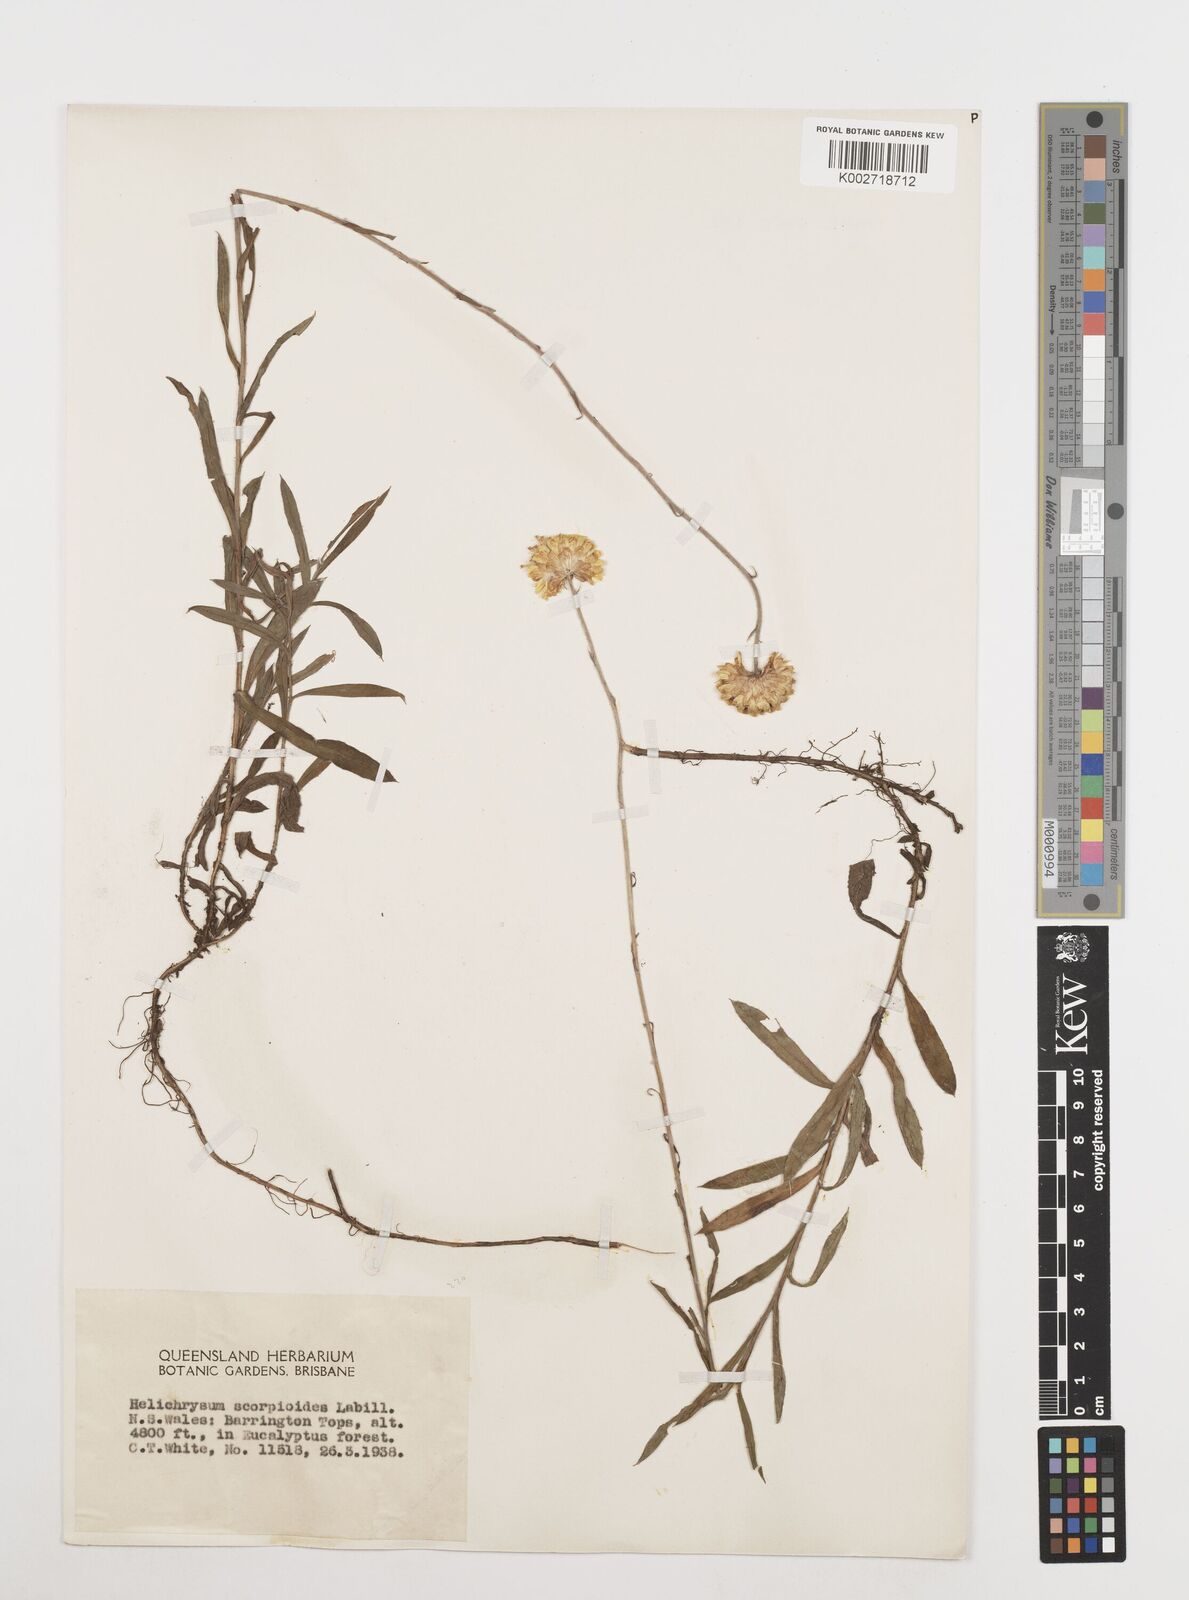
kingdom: Plantae
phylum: Tracheophyta
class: Magnoliopsida
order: Asterales
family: Asteraceae
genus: Coronidium
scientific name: Coronidium scorpioides
